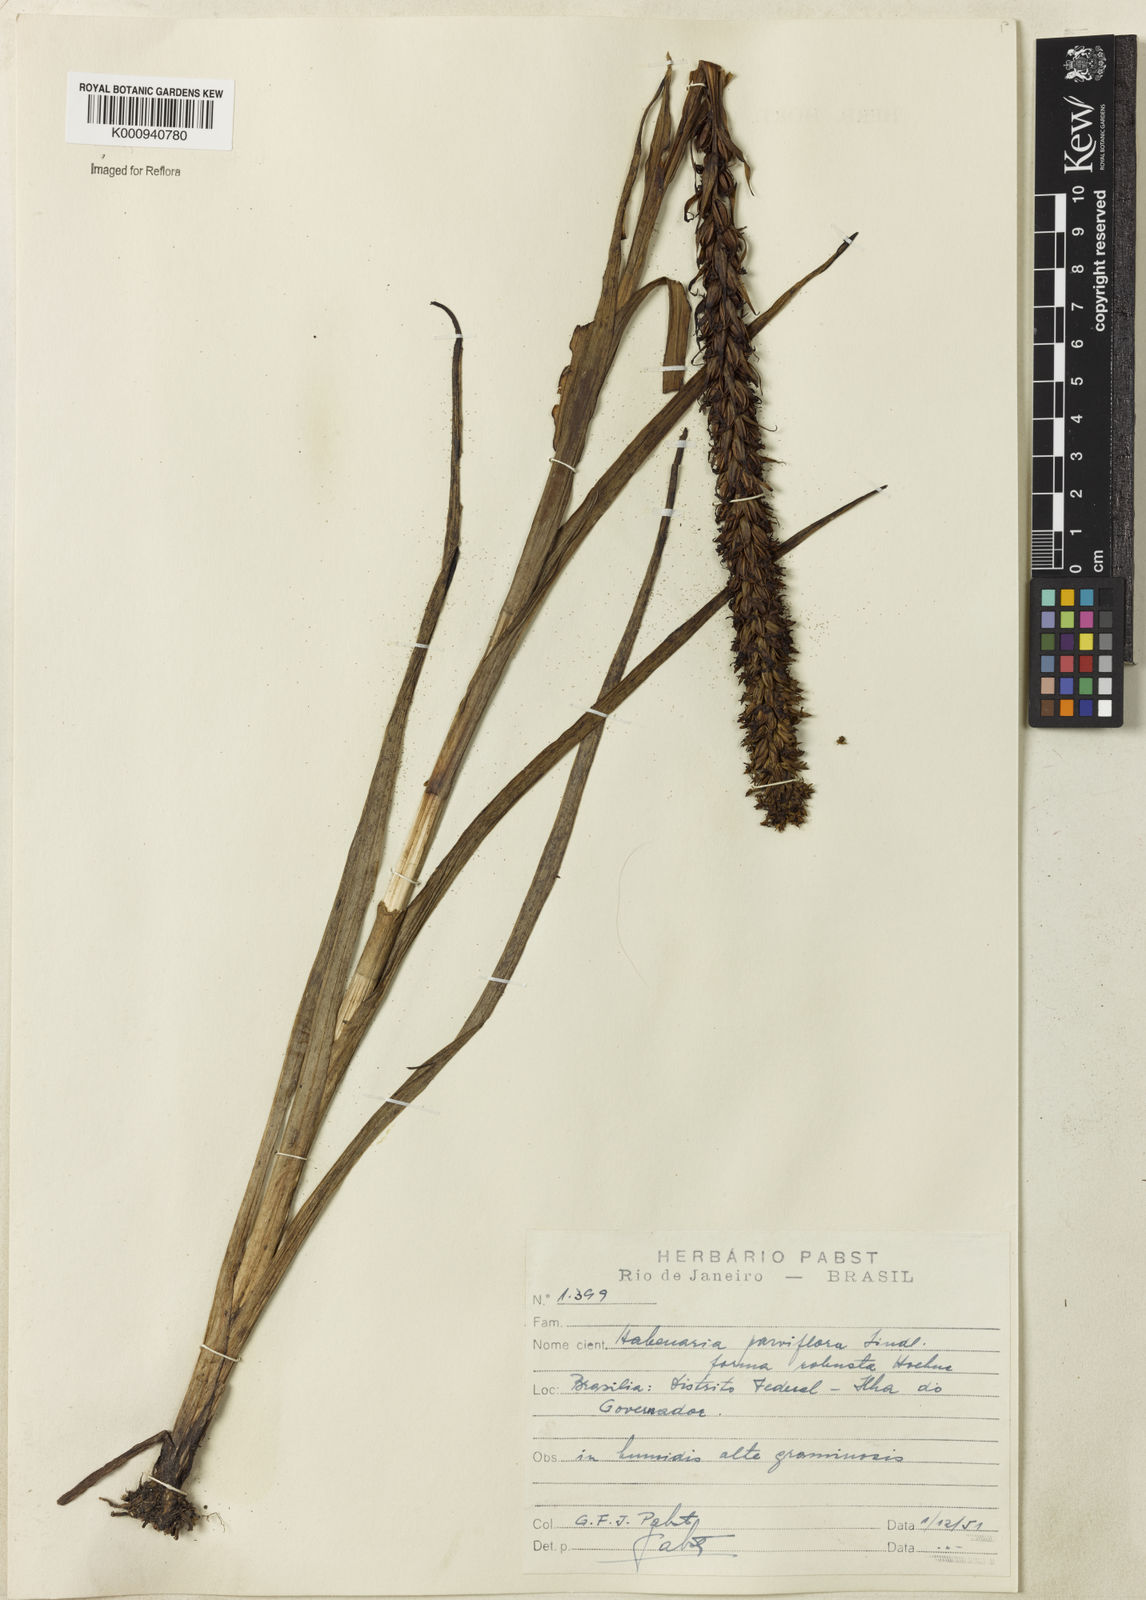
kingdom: Plantae
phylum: Tracheophyta
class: Liliopsida
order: Asparagales
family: Orchidaceae
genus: Habenaria
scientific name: Habenaria parviflora
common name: Small flowered habenaria
